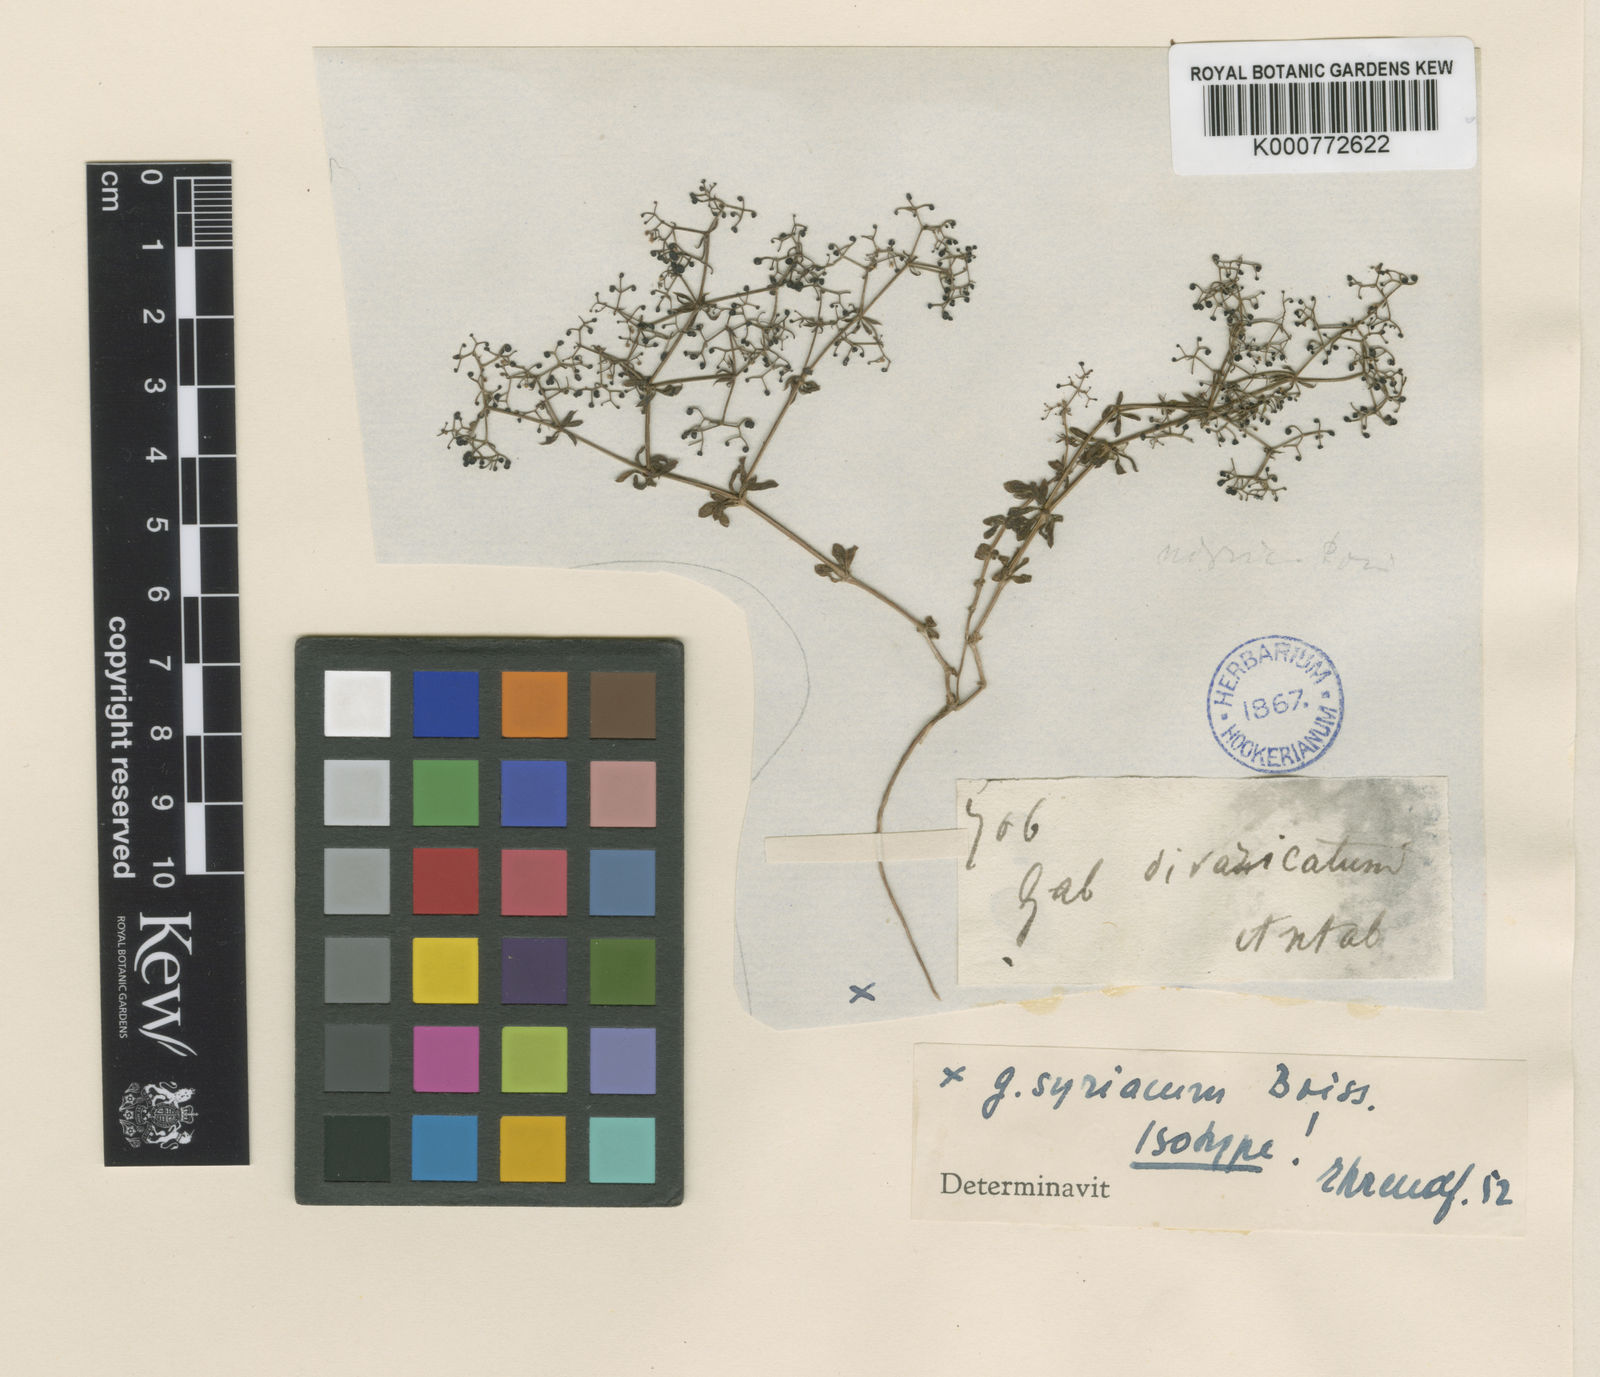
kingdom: Plantae
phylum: Tracheophyta
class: Magnoliopsida
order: Gentianales
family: Rubiaceae
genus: Galium
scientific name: Galium nigricans
